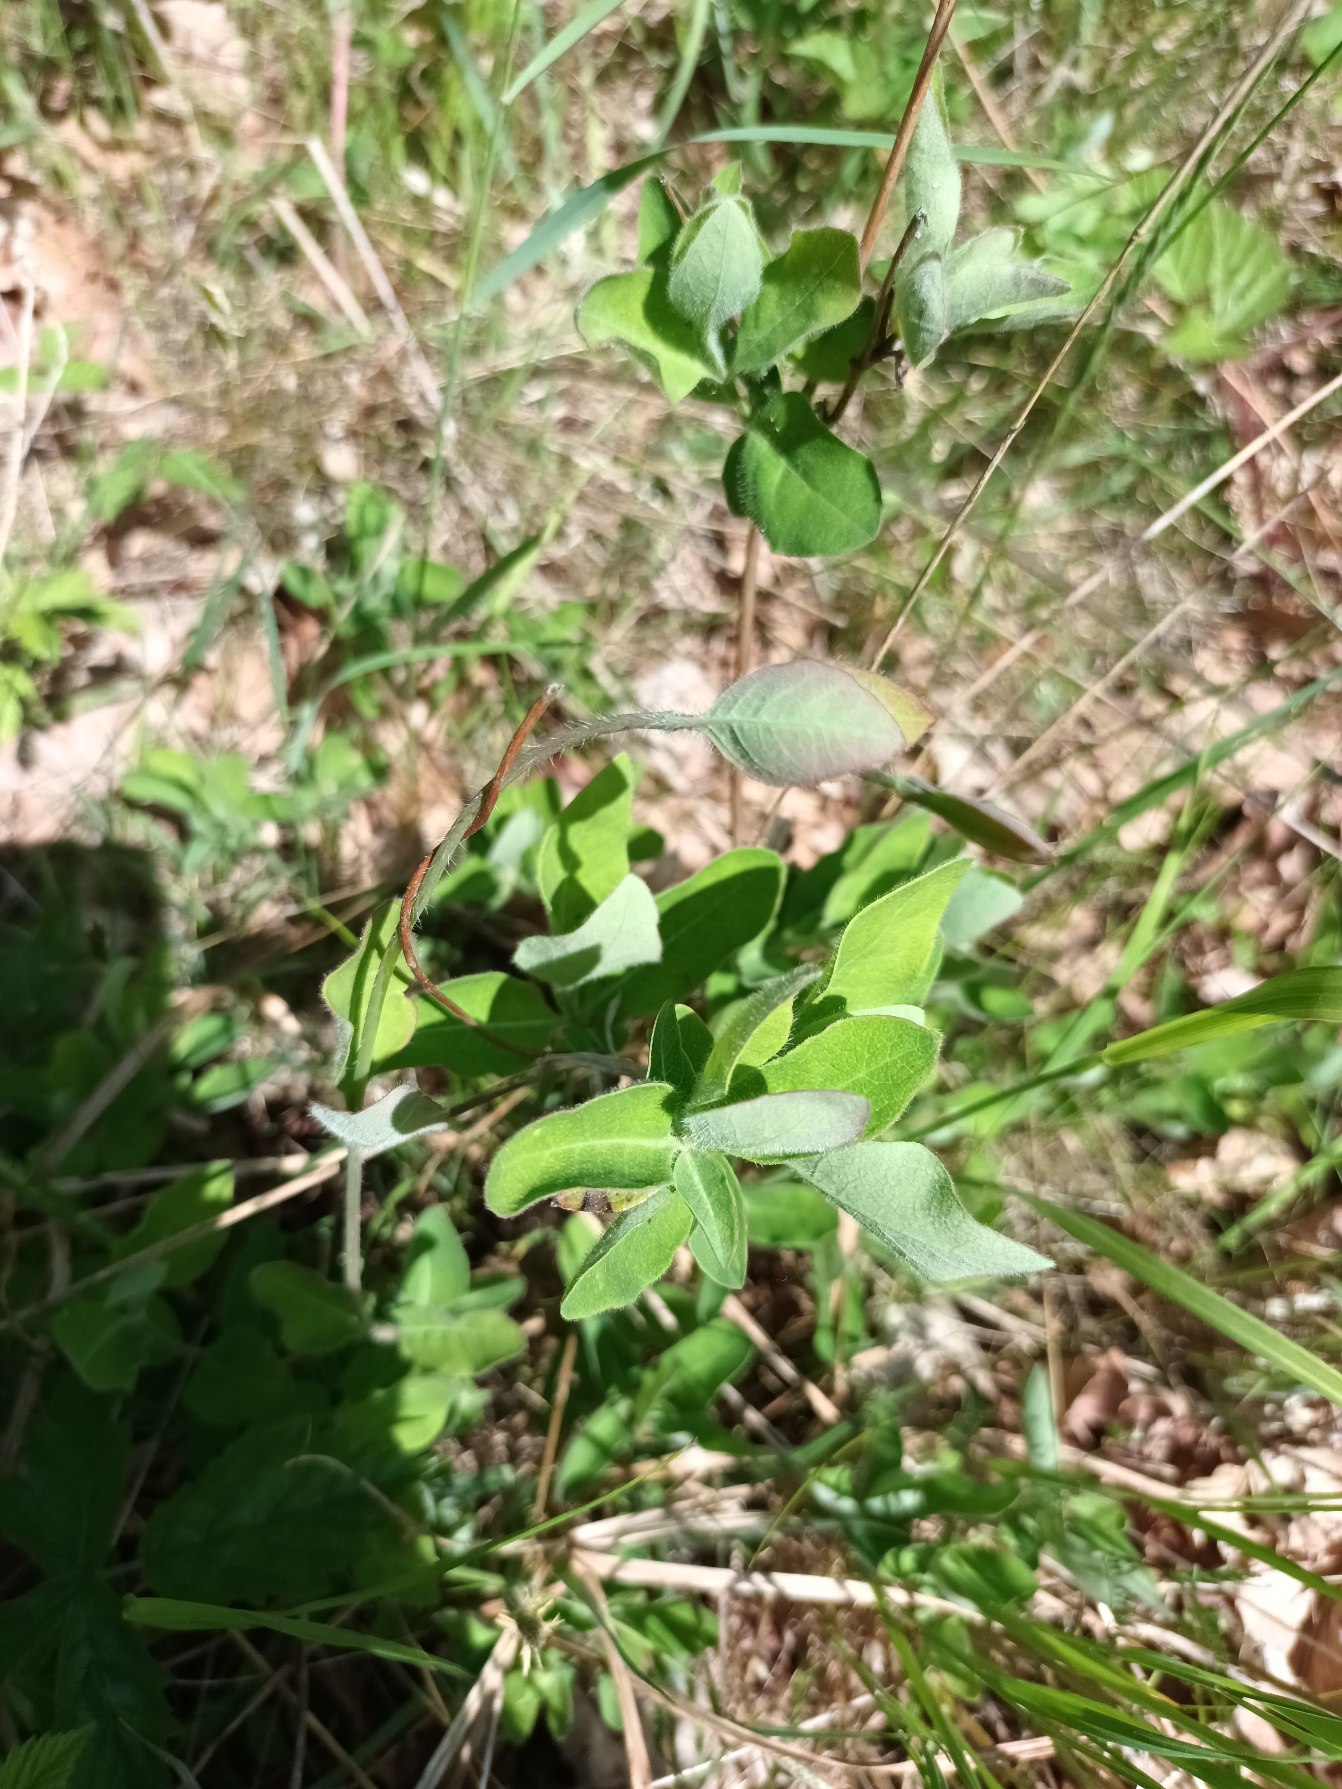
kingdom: Plantae
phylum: Tracheophyta
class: Magnoliopsida
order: Dipsacales
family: Caprifoliaceae
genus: Lonicera
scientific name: Lonicera periclymenum
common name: Almindelig gedeblad
